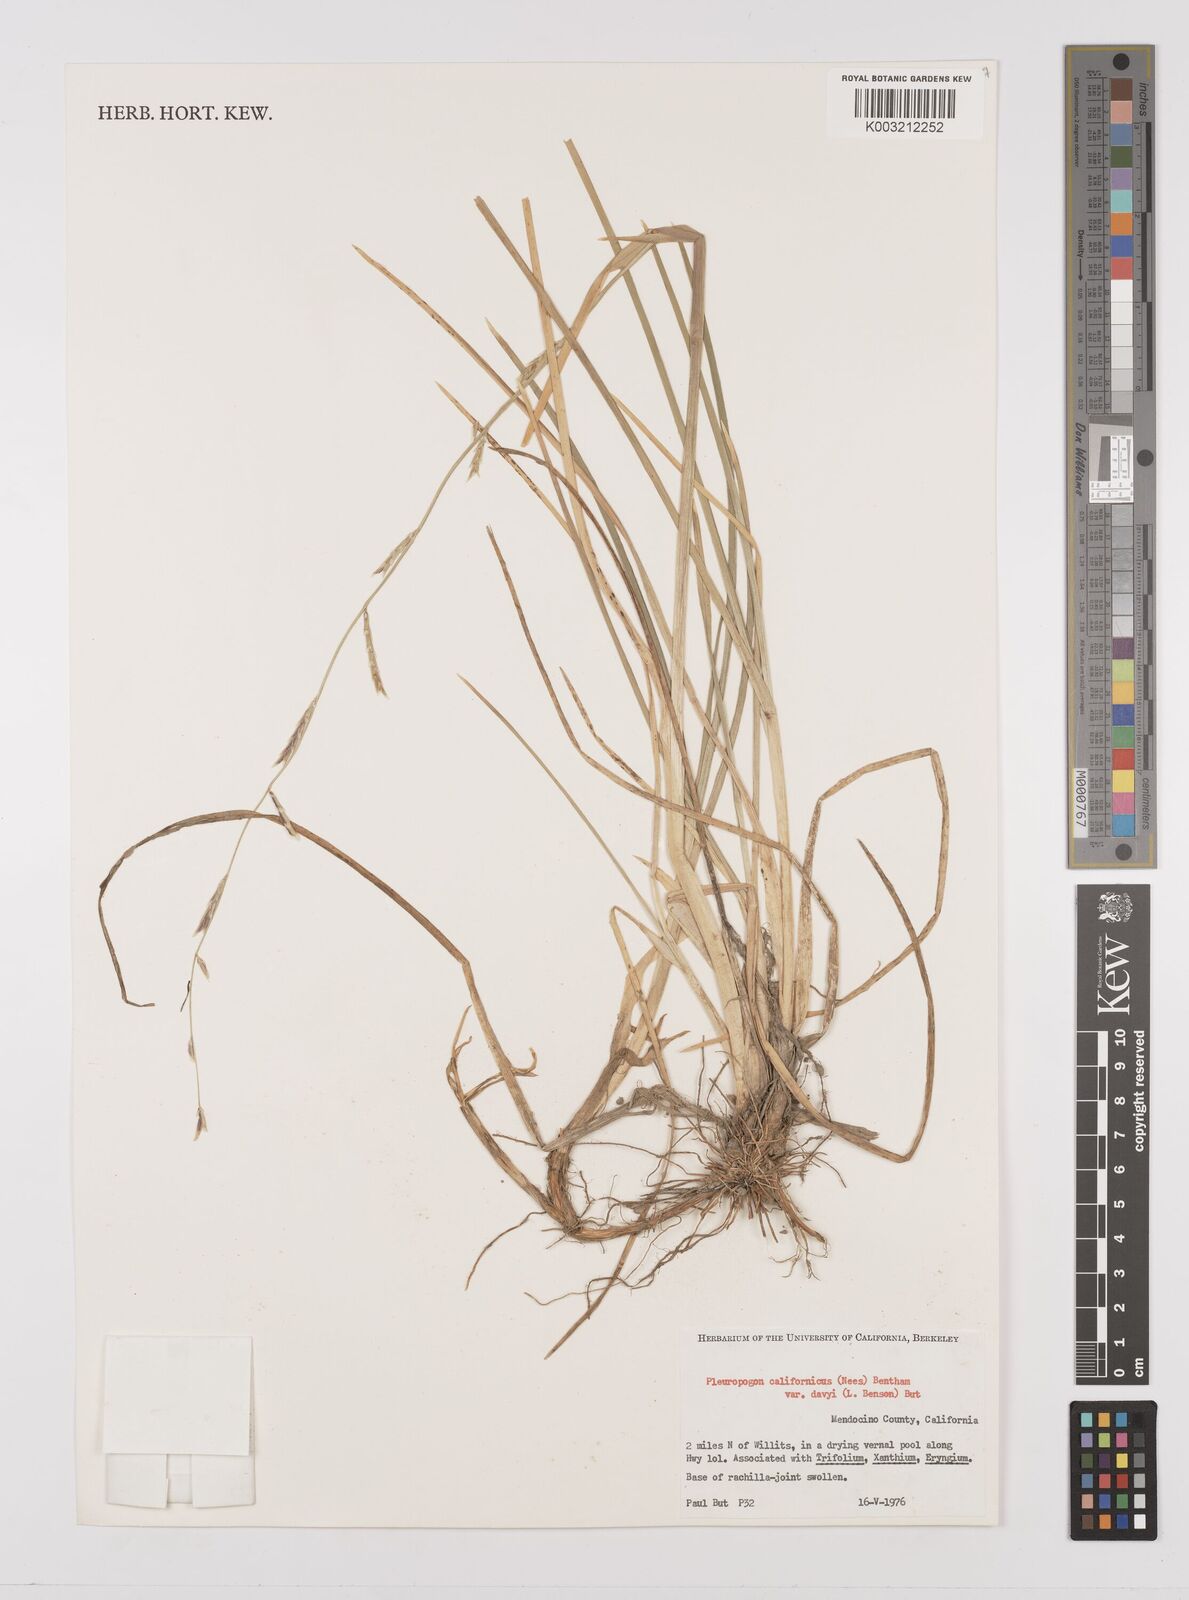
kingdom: Plantae
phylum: Tracheophyta
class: Liliopsida
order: Poales
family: Poaceae
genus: Pleuropogon
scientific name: Pleuropogon californicus
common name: California semaphore grass
